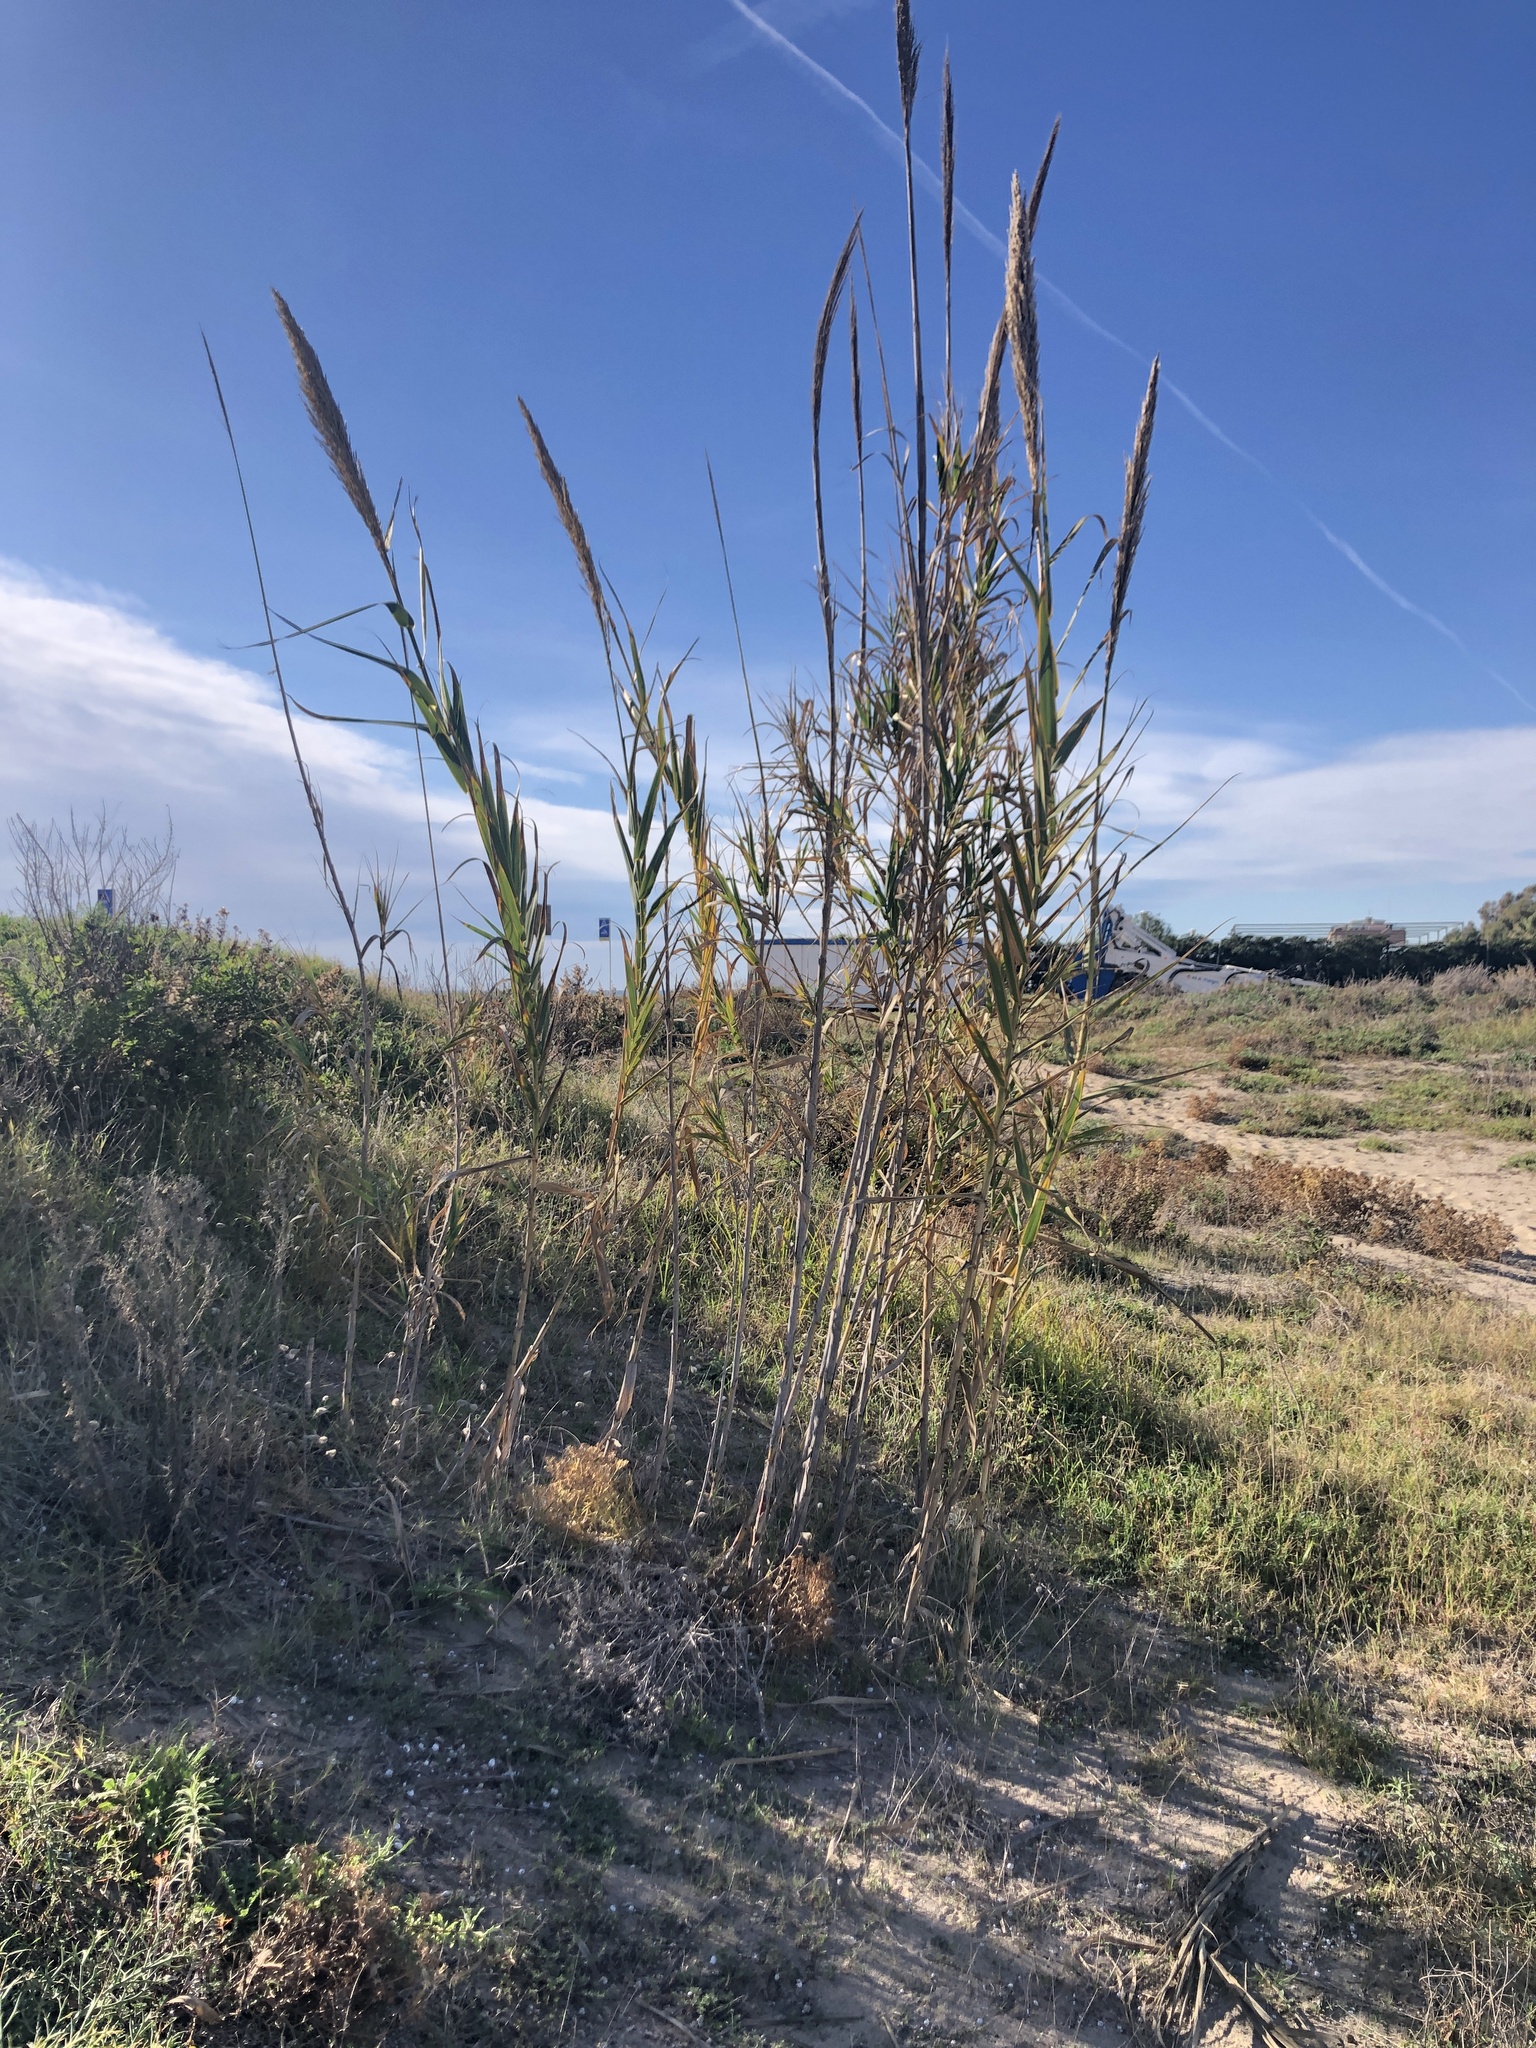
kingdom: Plantae
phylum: Tracheophyta
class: Liliopsida
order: Poales
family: Poaceae
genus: Arundo
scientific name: Arundo donax
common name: Giant reed
